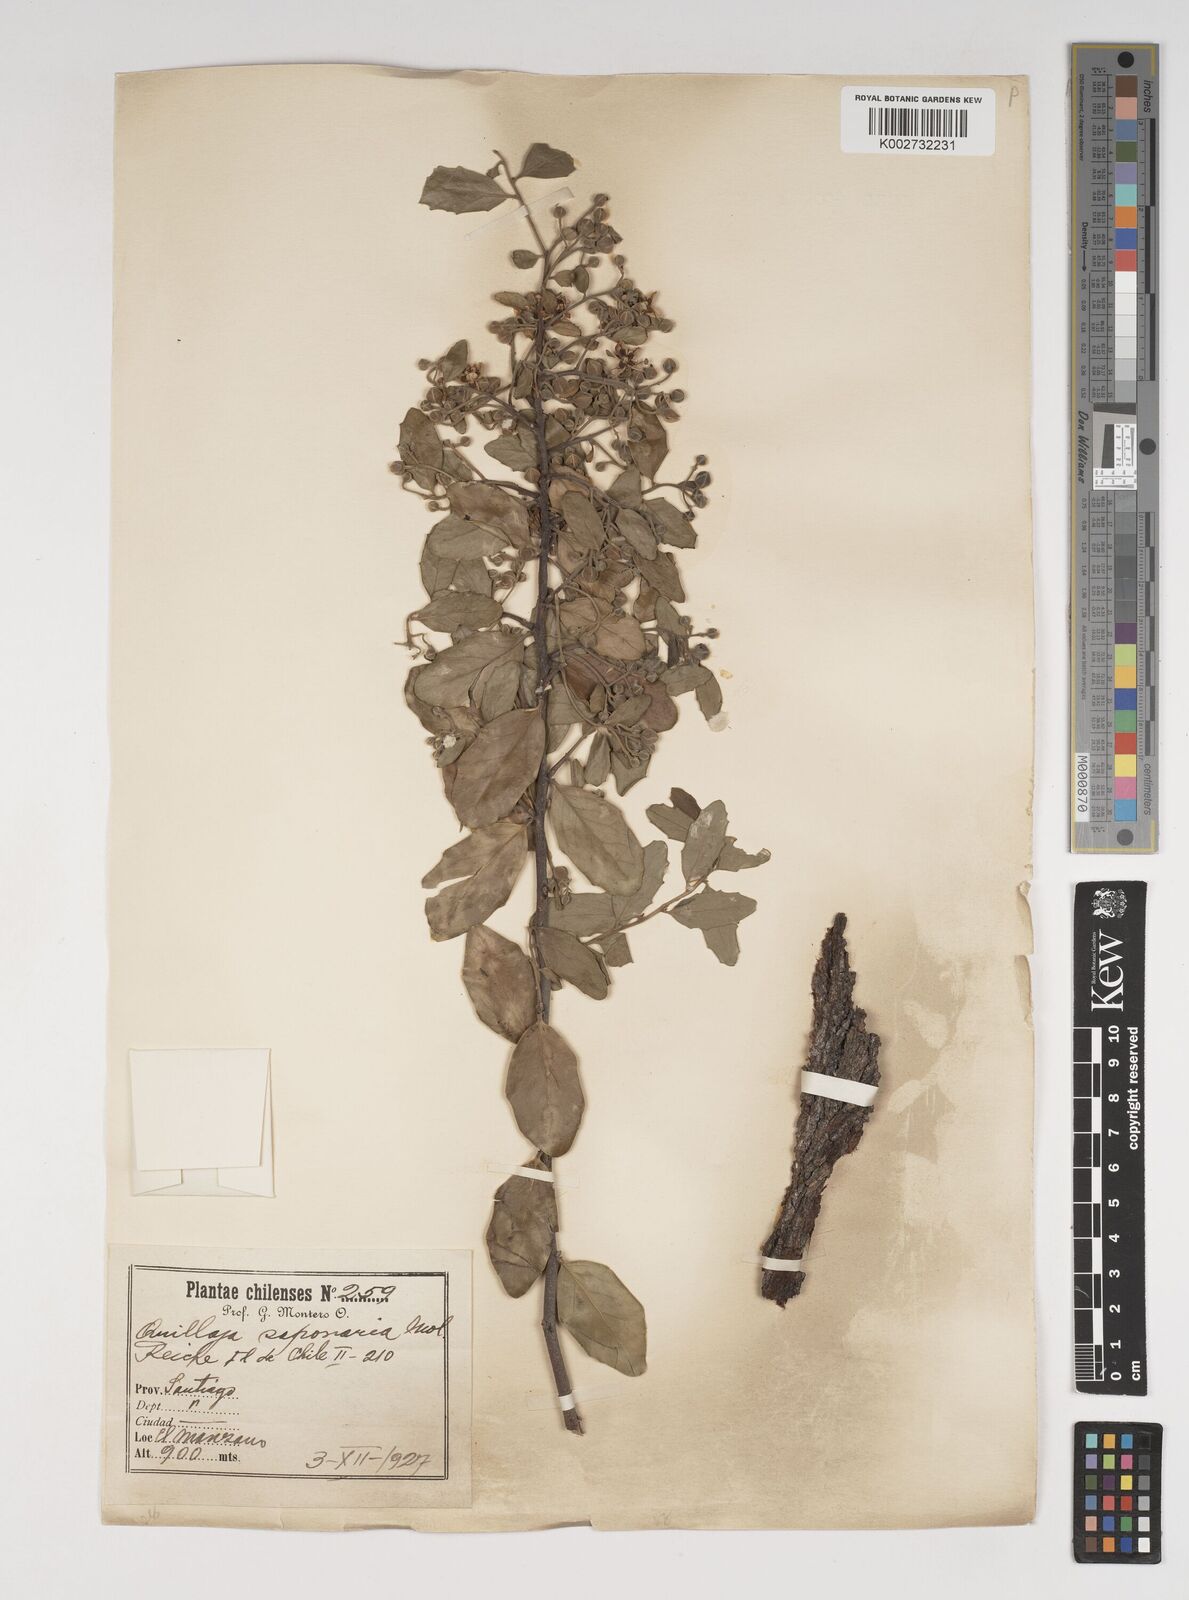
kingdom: Plantae
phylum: Tracheophyta
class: Magnoliopsida
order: Fabales
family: Quillajaceae
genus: Quillaja
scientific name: Quillaja saponaria
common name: Murillo's-bark
